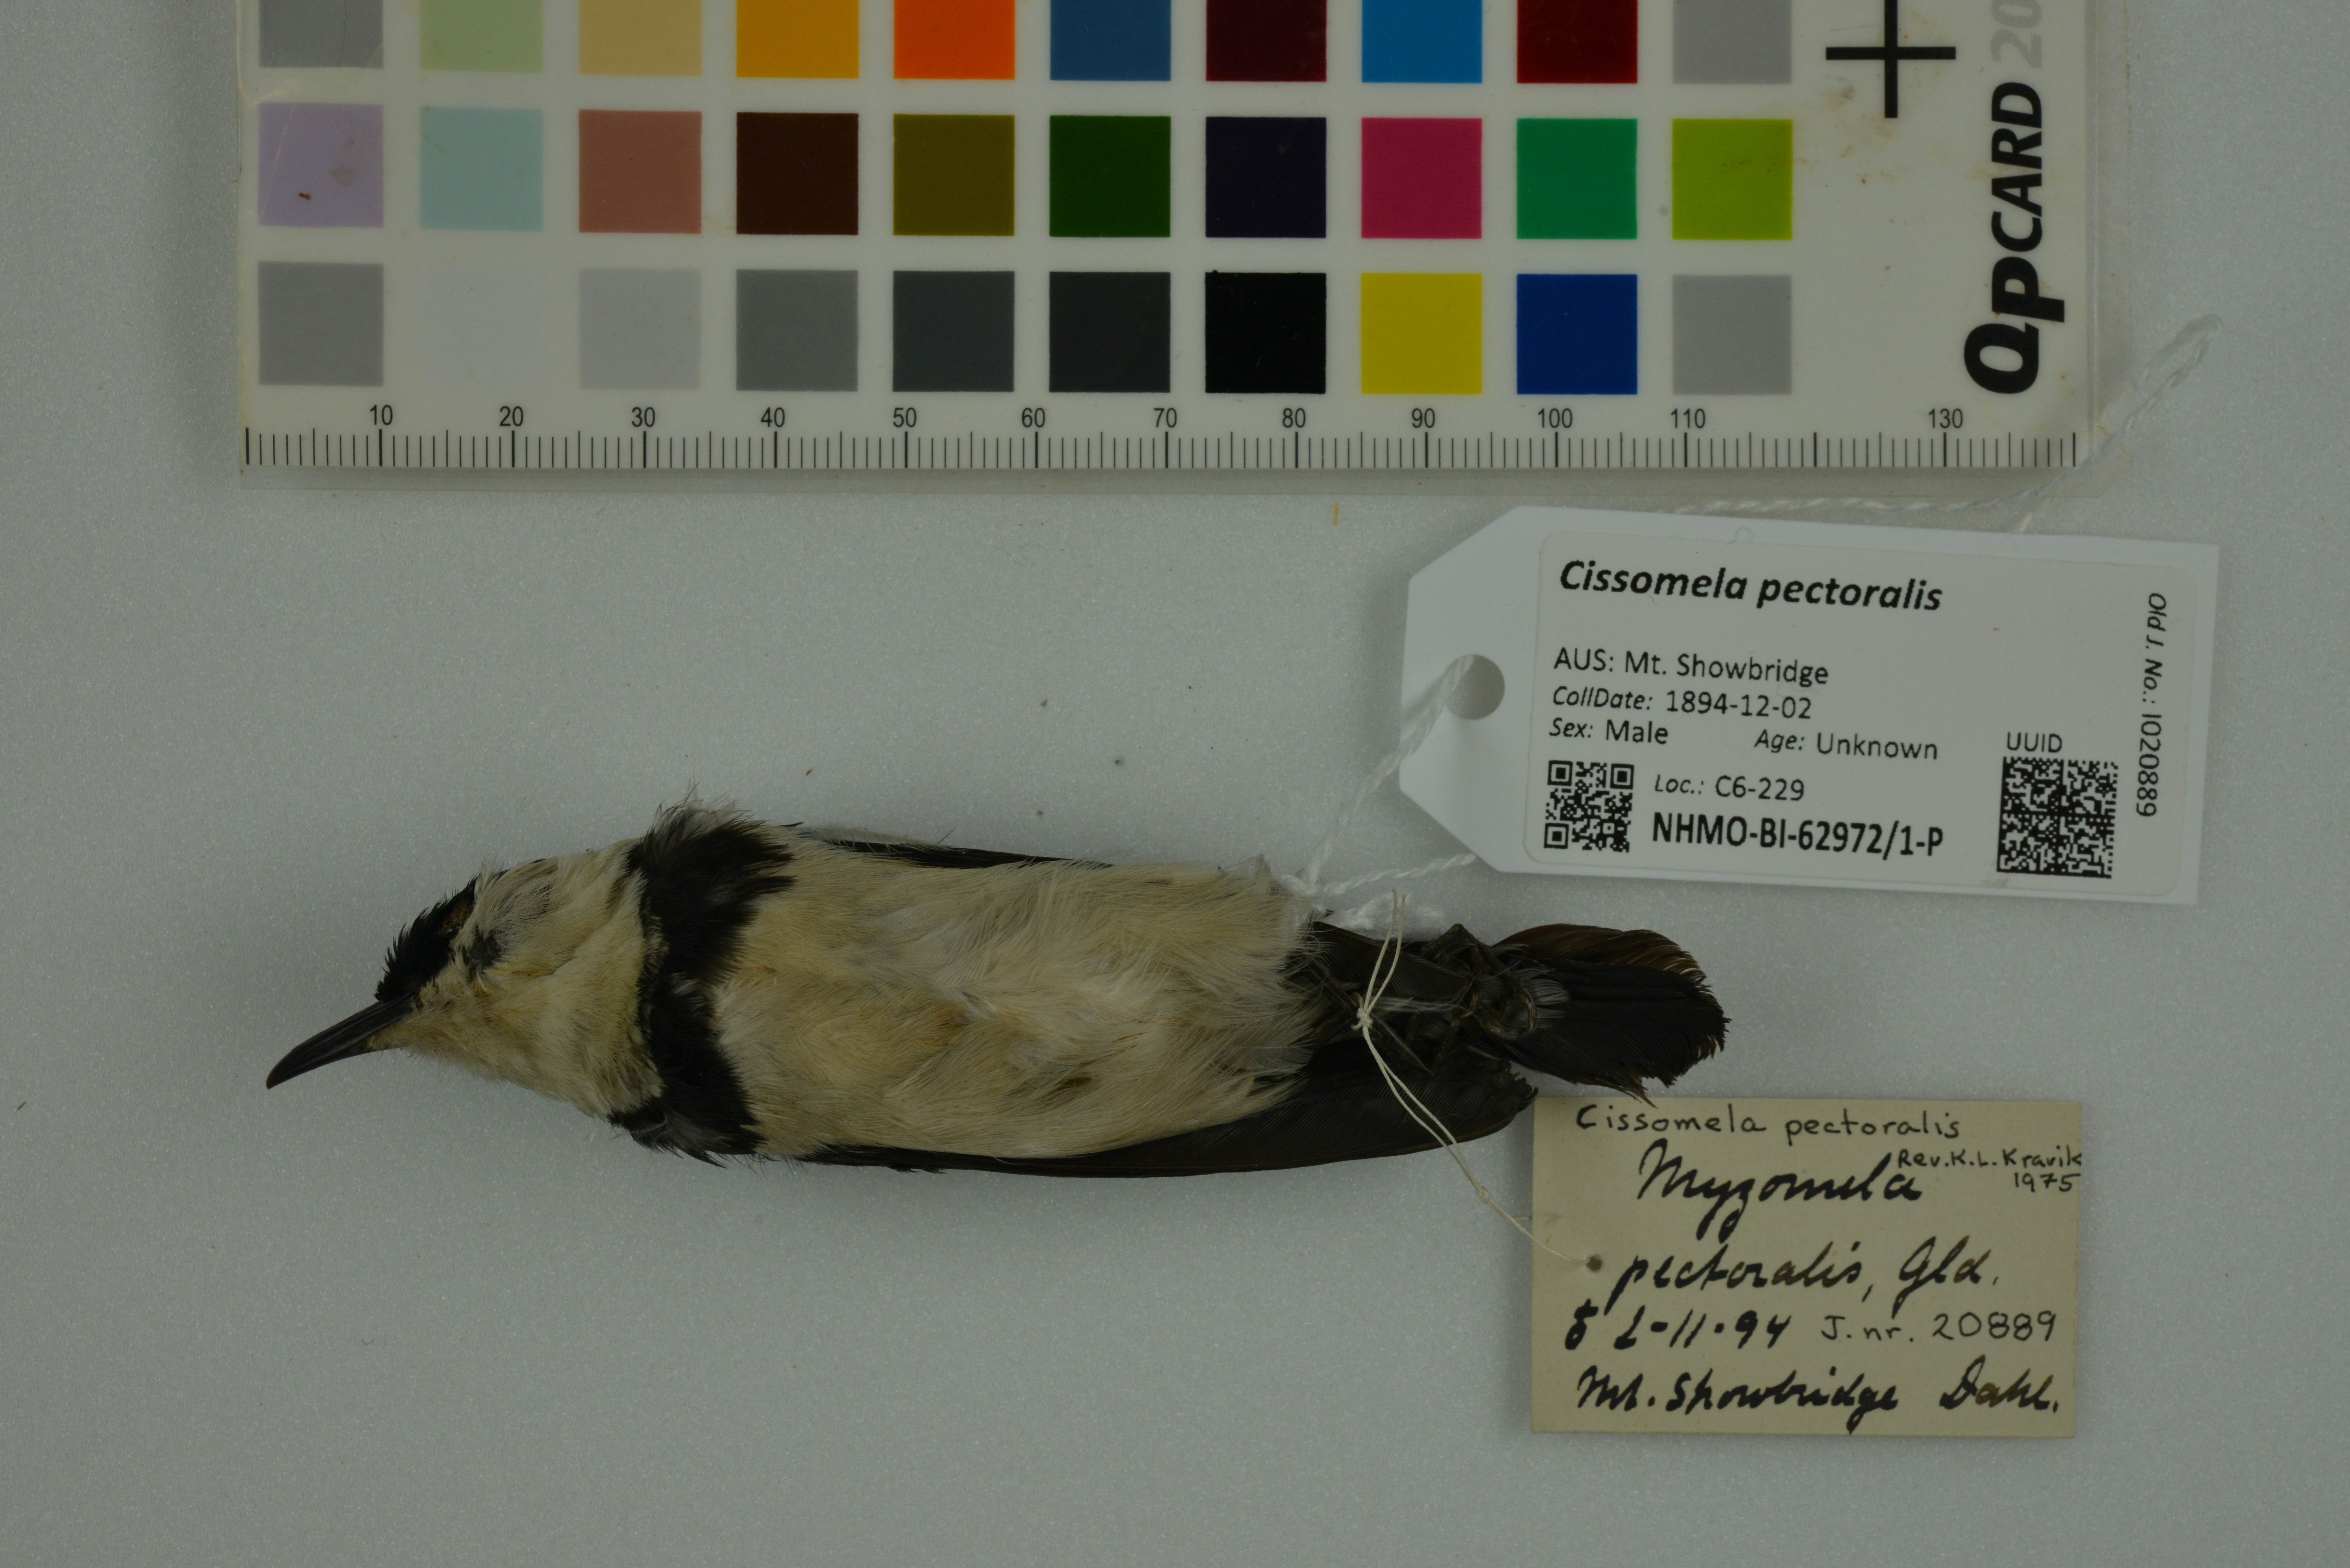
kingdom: Animalia
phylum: Chordata
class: Aves
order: Passeriformes
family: Meliphagidae
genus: Cissomela
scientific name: Cissomela pectoralis
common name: Banded honeyeater
